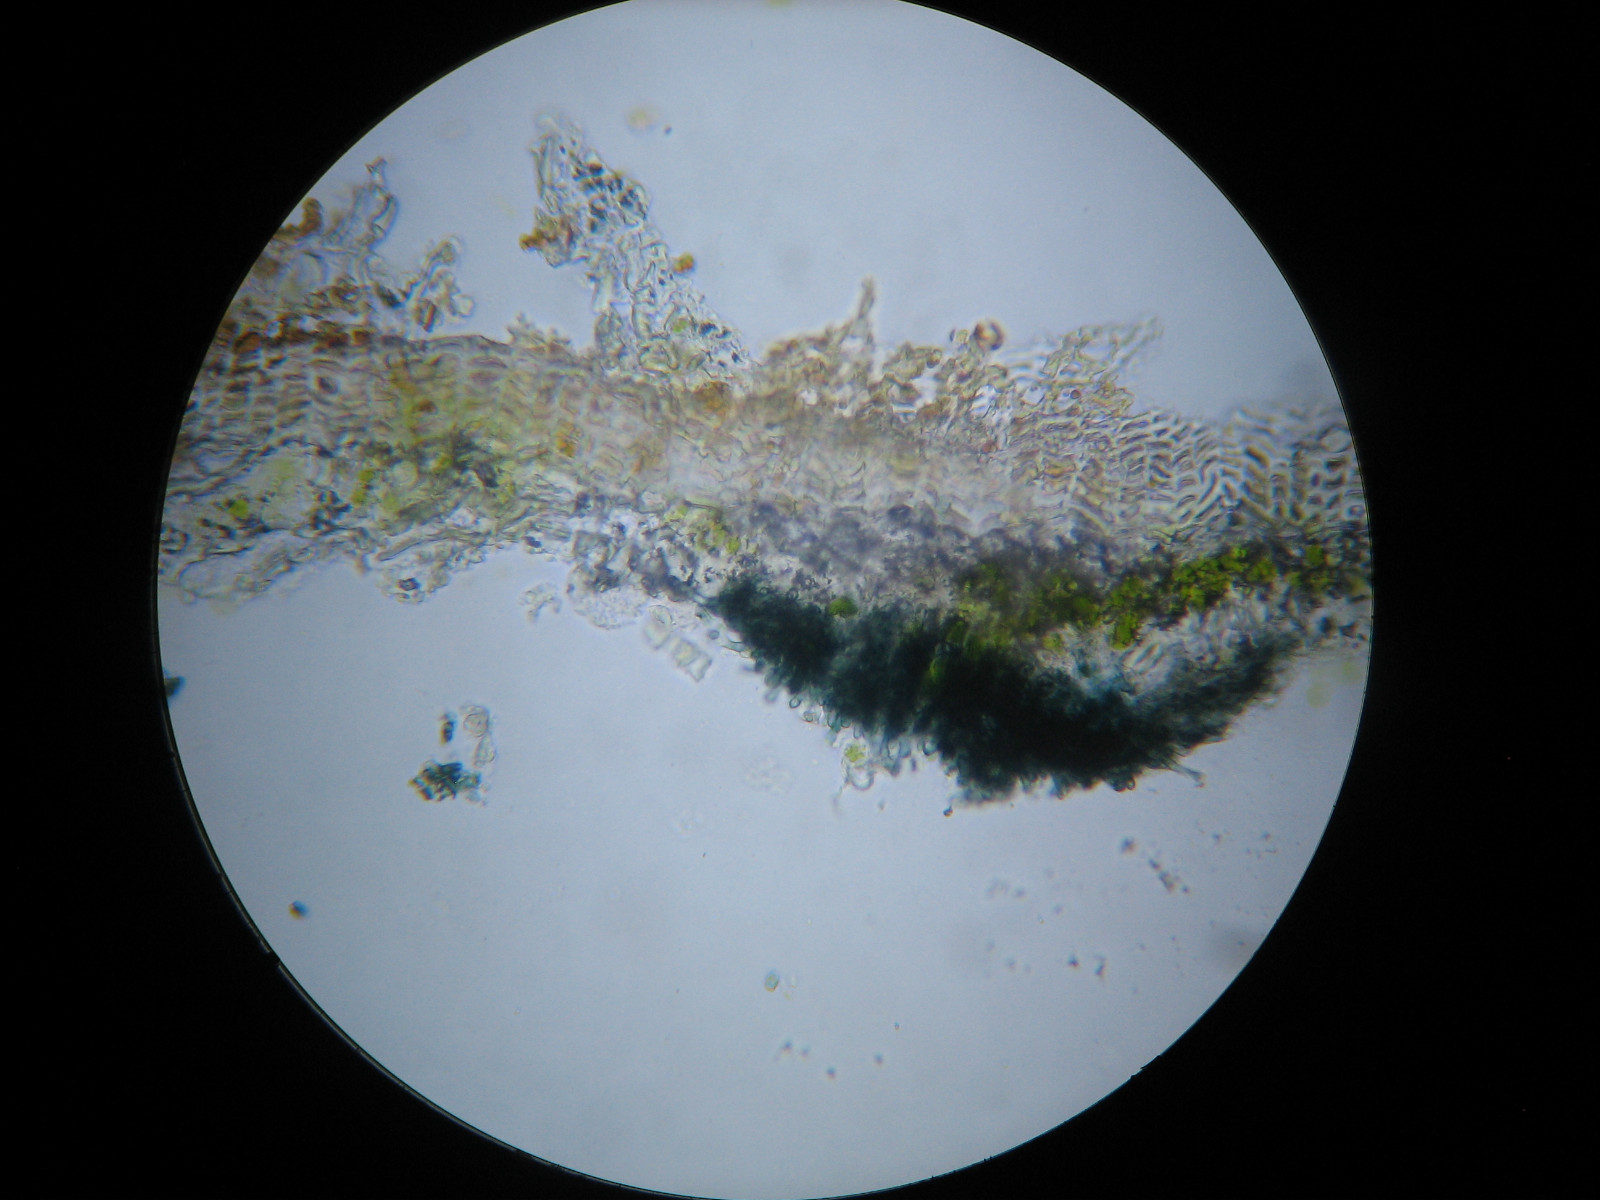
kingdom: Fungi
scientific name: Fungi
